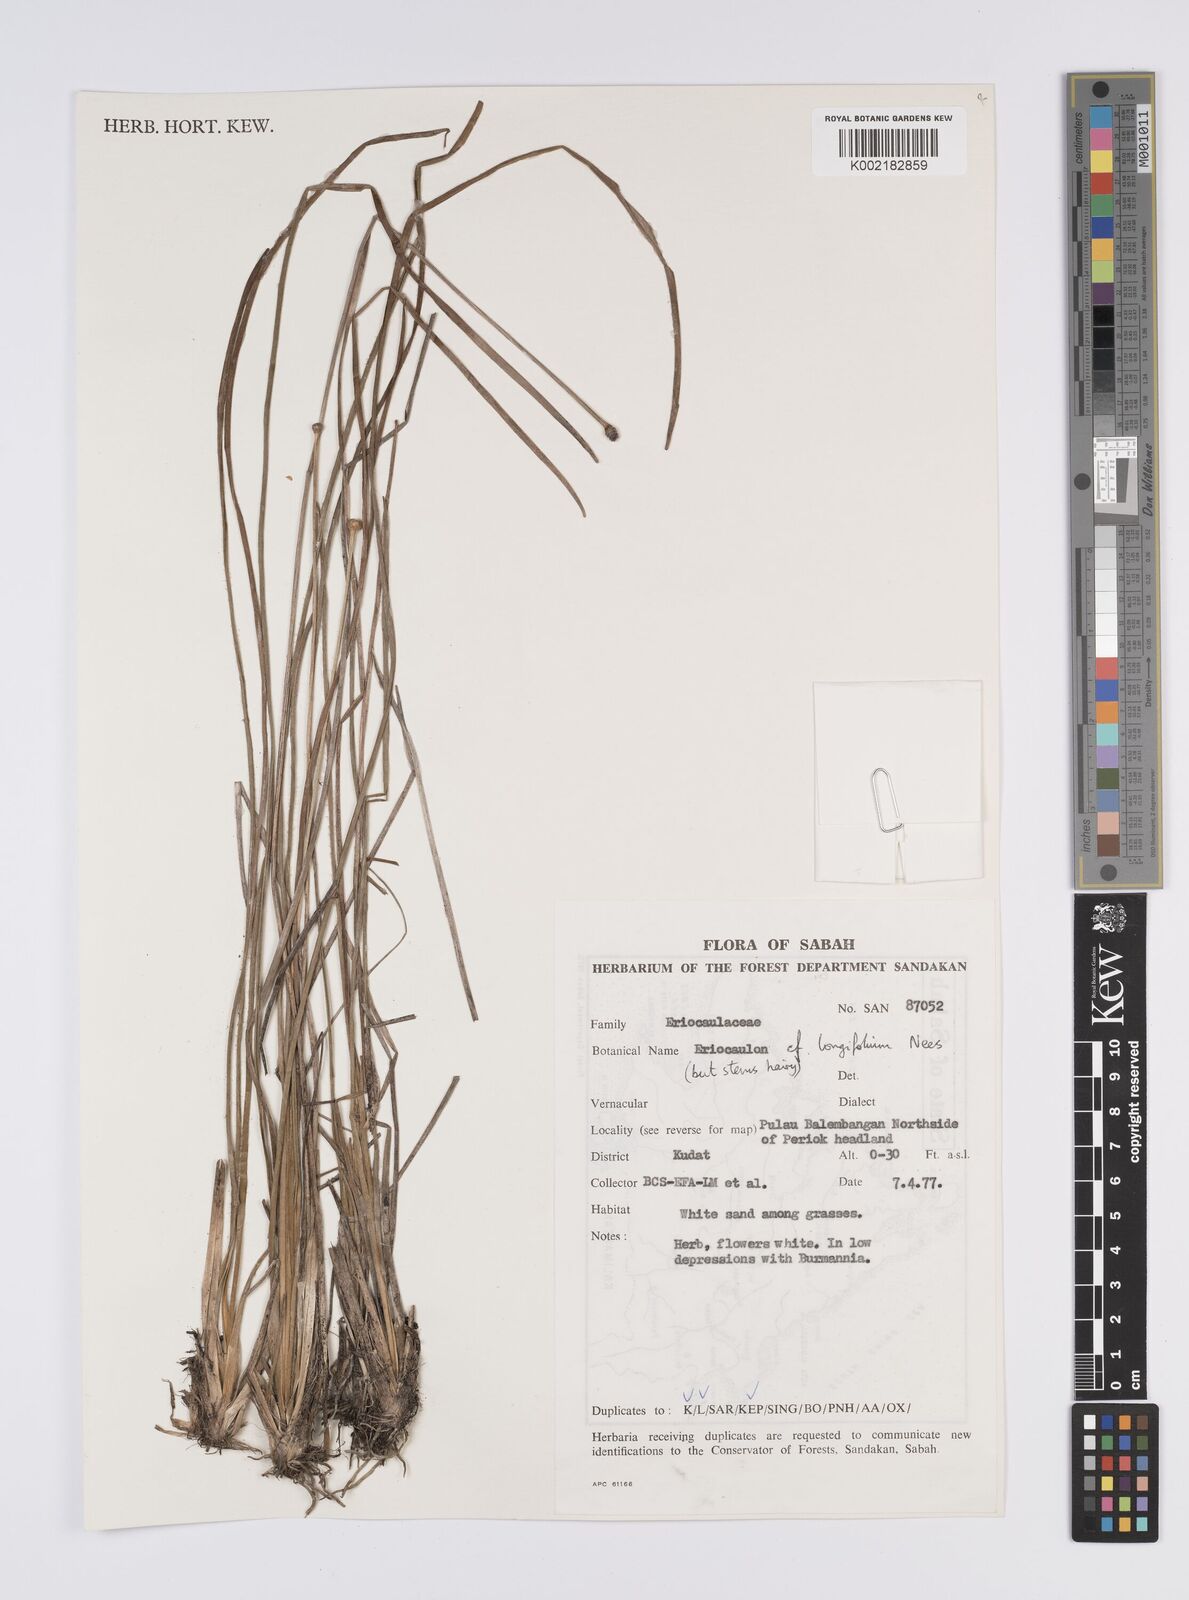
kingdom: Plantae
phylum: Tracheophyta
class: Liliopsida
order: Poales
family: Eriocaulaceae
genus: Eriocaulon
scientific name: Eriocaulon willdenovianum
